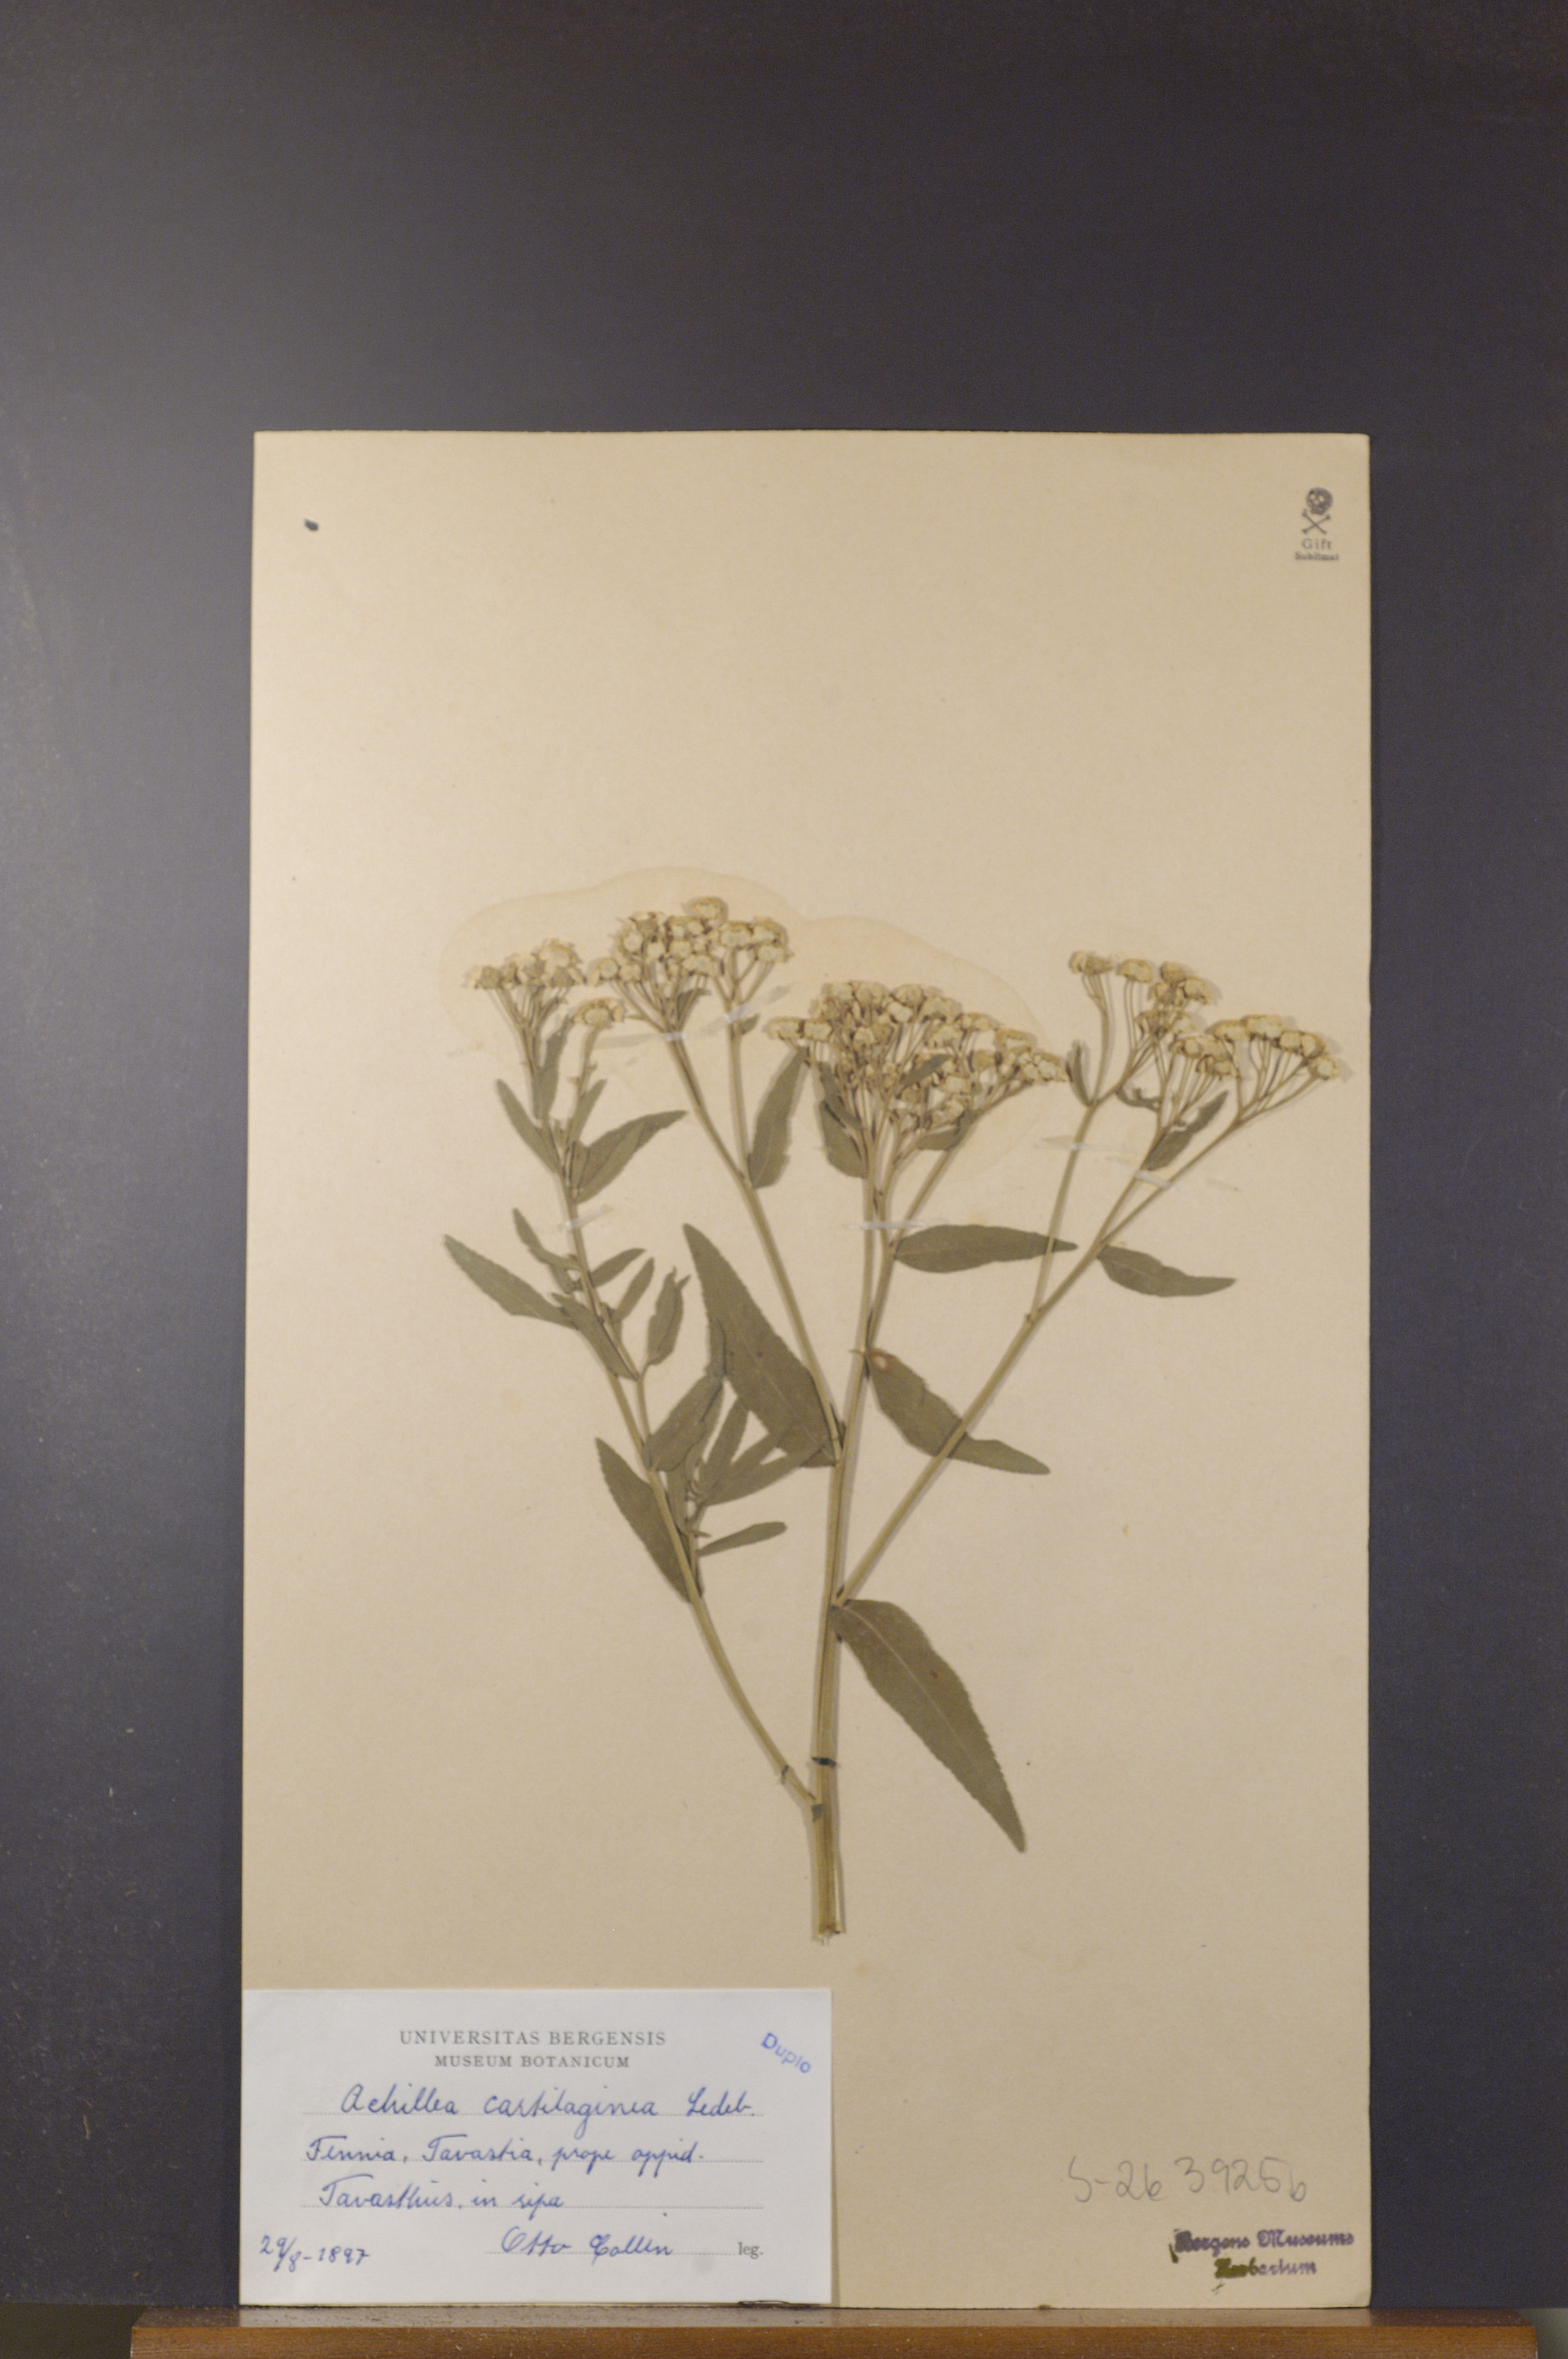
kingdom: Plantae
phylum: Tracheophyta
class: Magnoliopsida
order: Asterales
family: Asteraceae
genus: Achillea
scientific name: Achillea salicifolia
